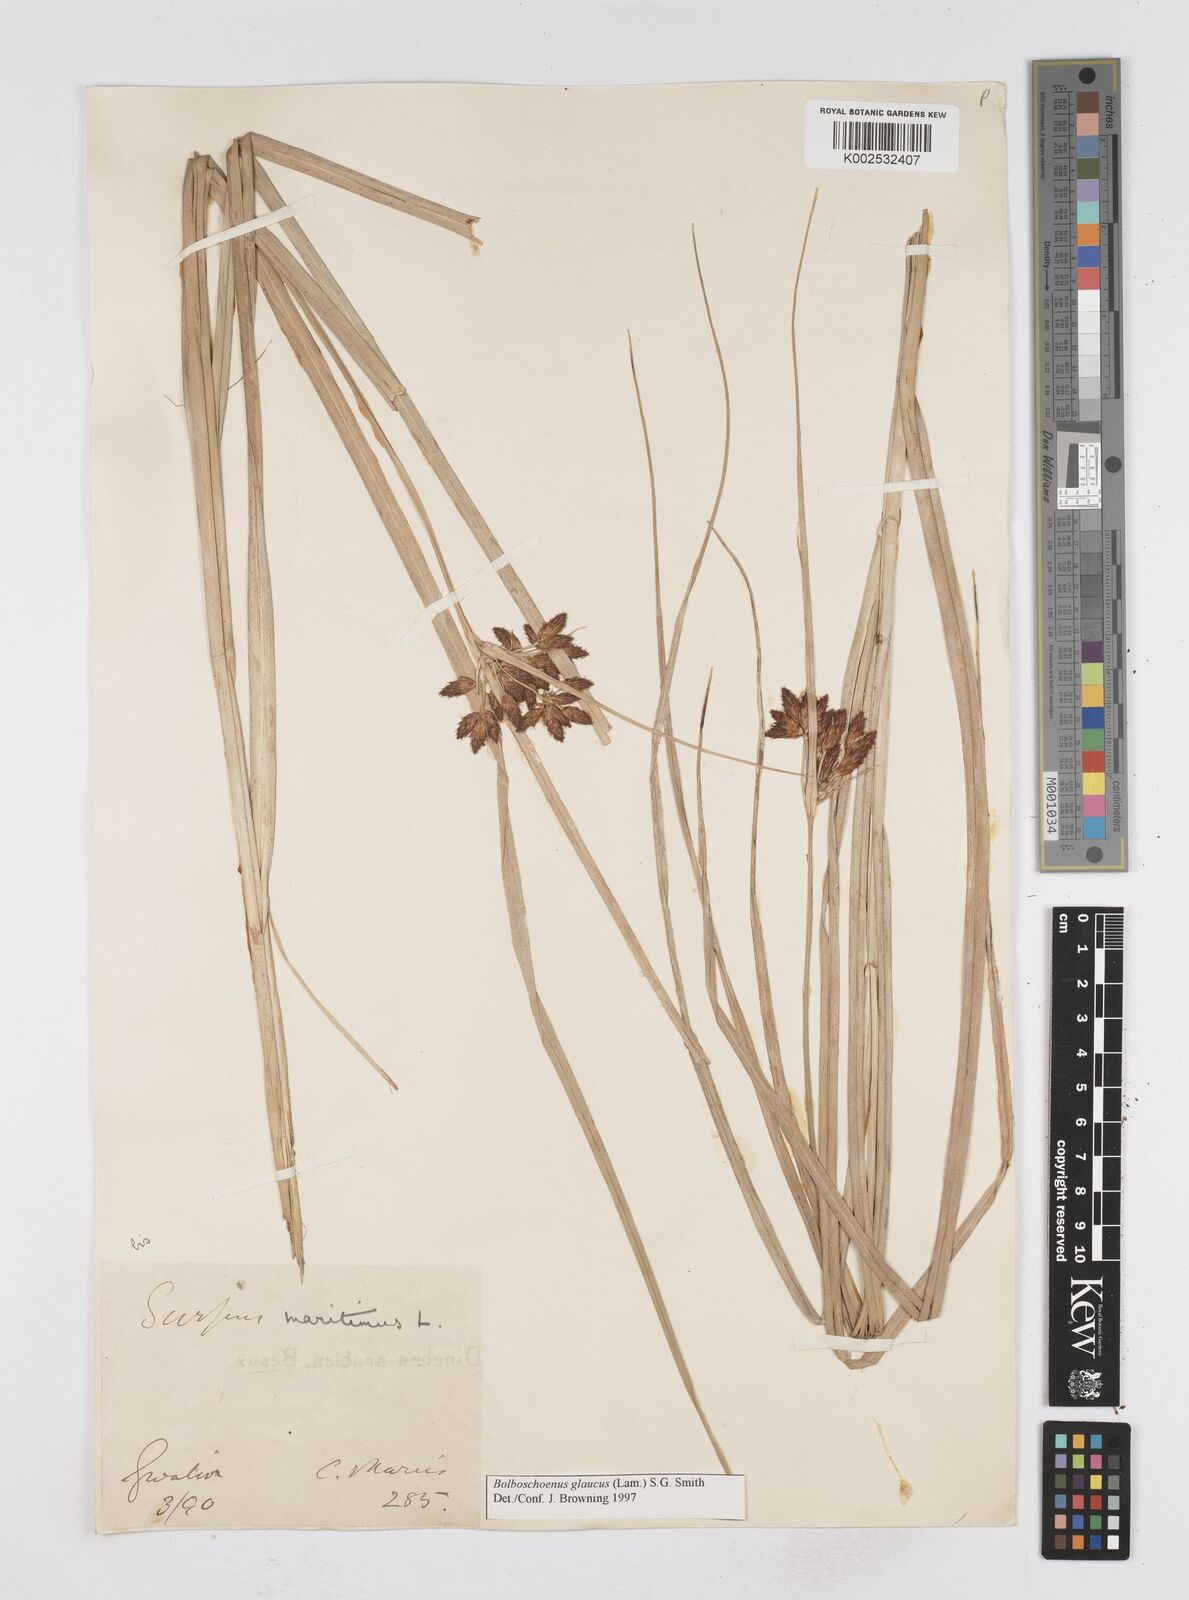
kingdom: Plantae
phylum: Tracheophyta
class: Liliopsida
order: Poales
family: Cyperaceae
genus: Bolboschoenus
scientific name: Bolboschoenus maritimus
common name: Sea club-rush
